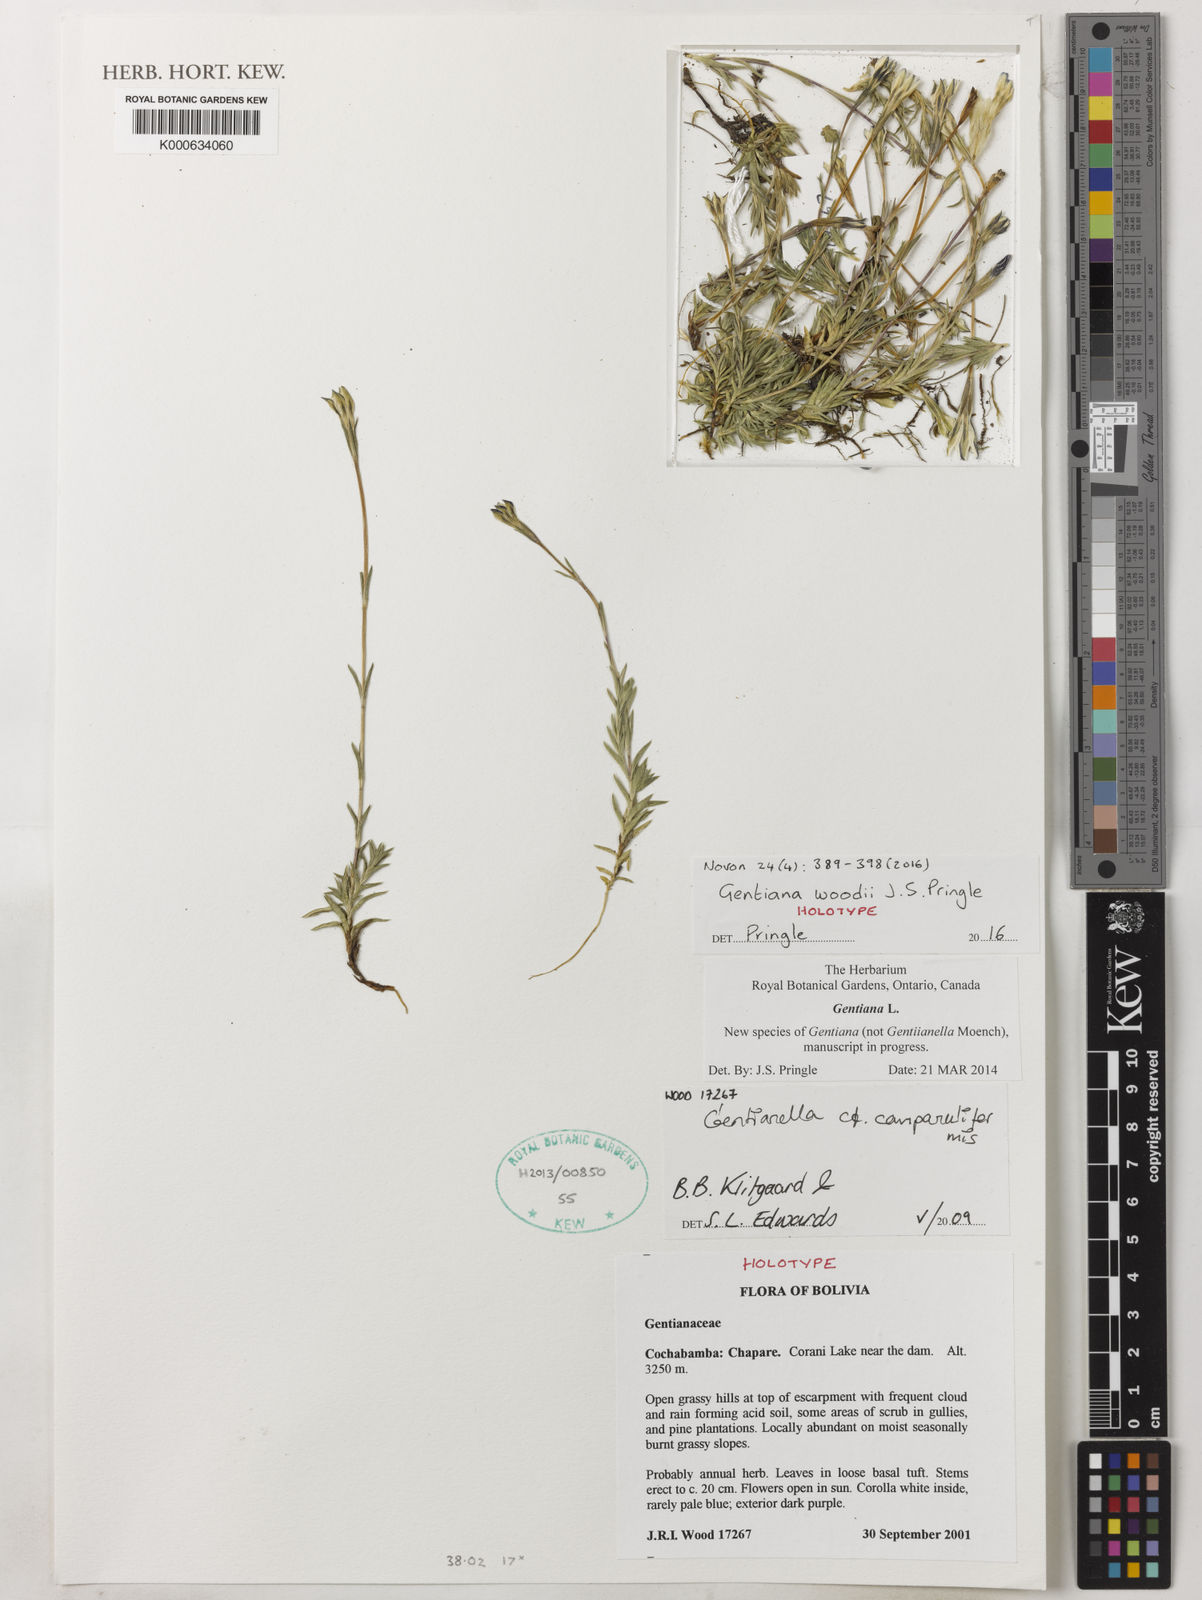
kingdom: Plantae
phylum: Tracheophyta
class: Magnoliopsida
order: Gentianales
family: Gentianaceae
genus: Gentiana
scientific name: Gentiana woodii
